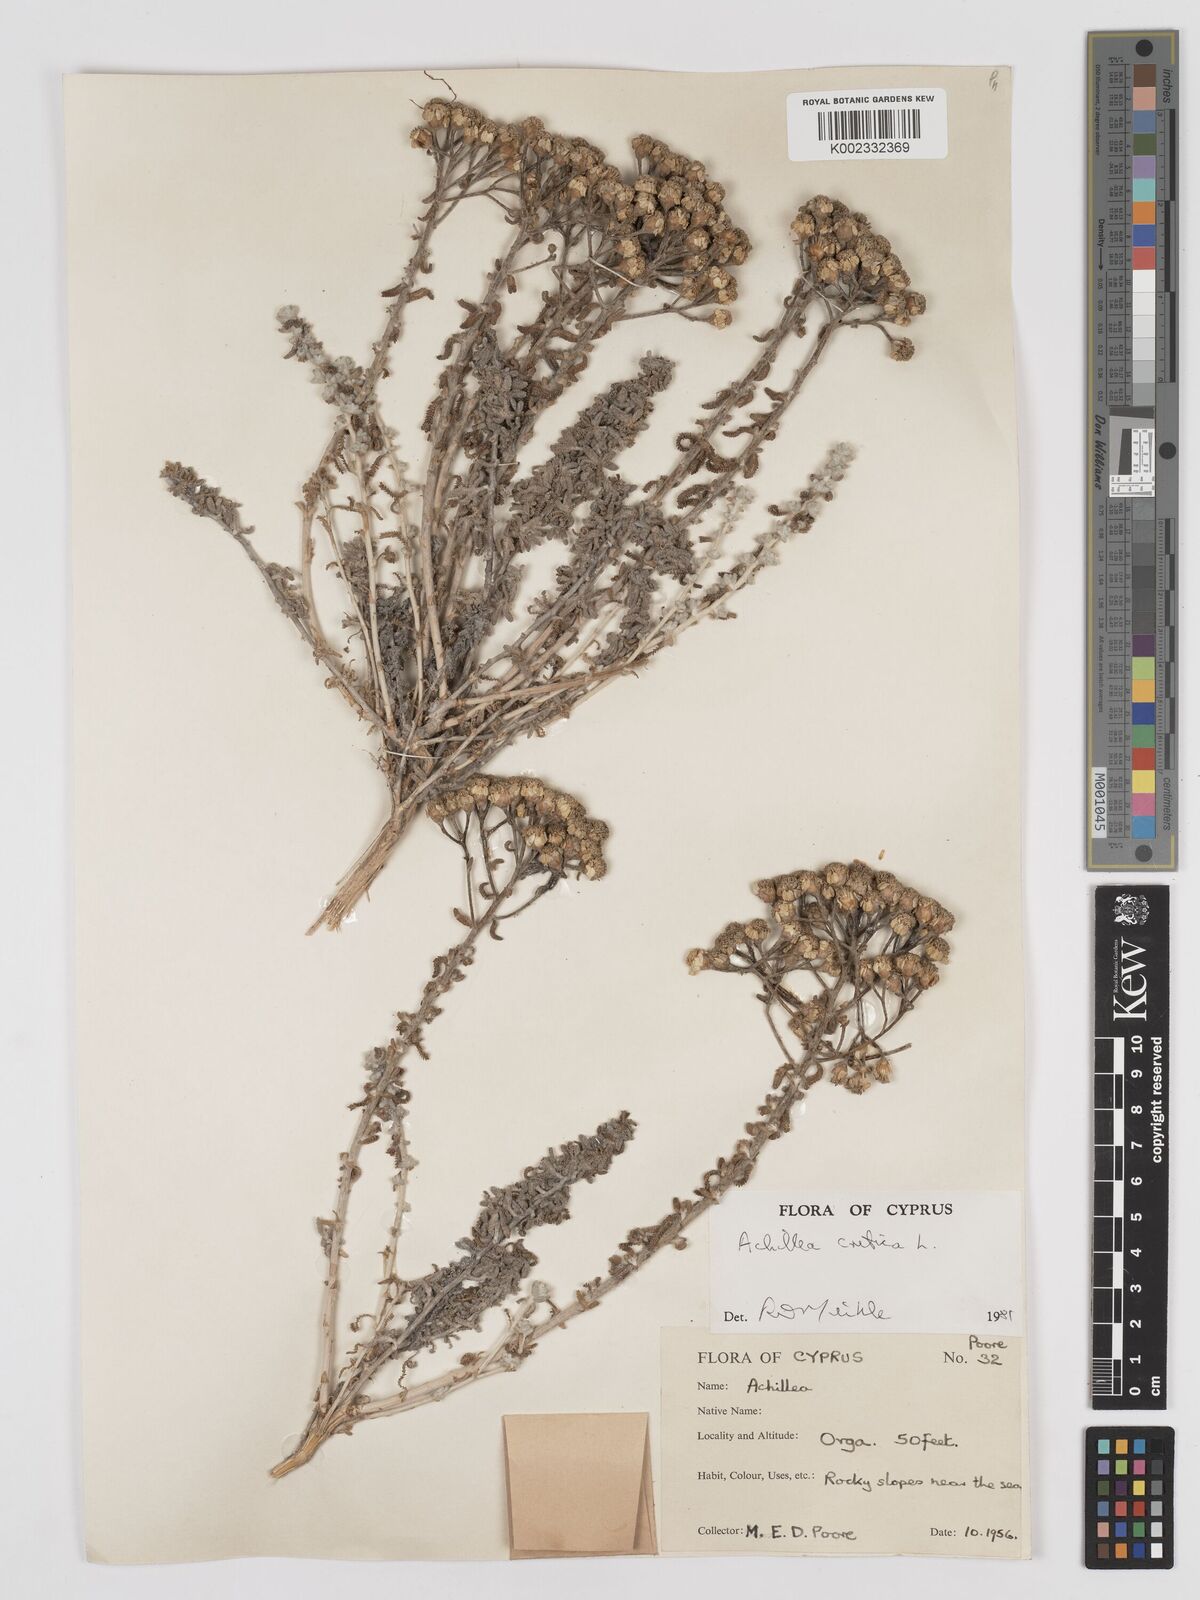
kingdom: Plantae
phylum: Tracheophyta
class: Magnoliopsida
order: Asterales
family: Asteraceae
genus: Achillea
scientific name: Achillea cretica
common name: Chamomile-leaved lavender-cotton
